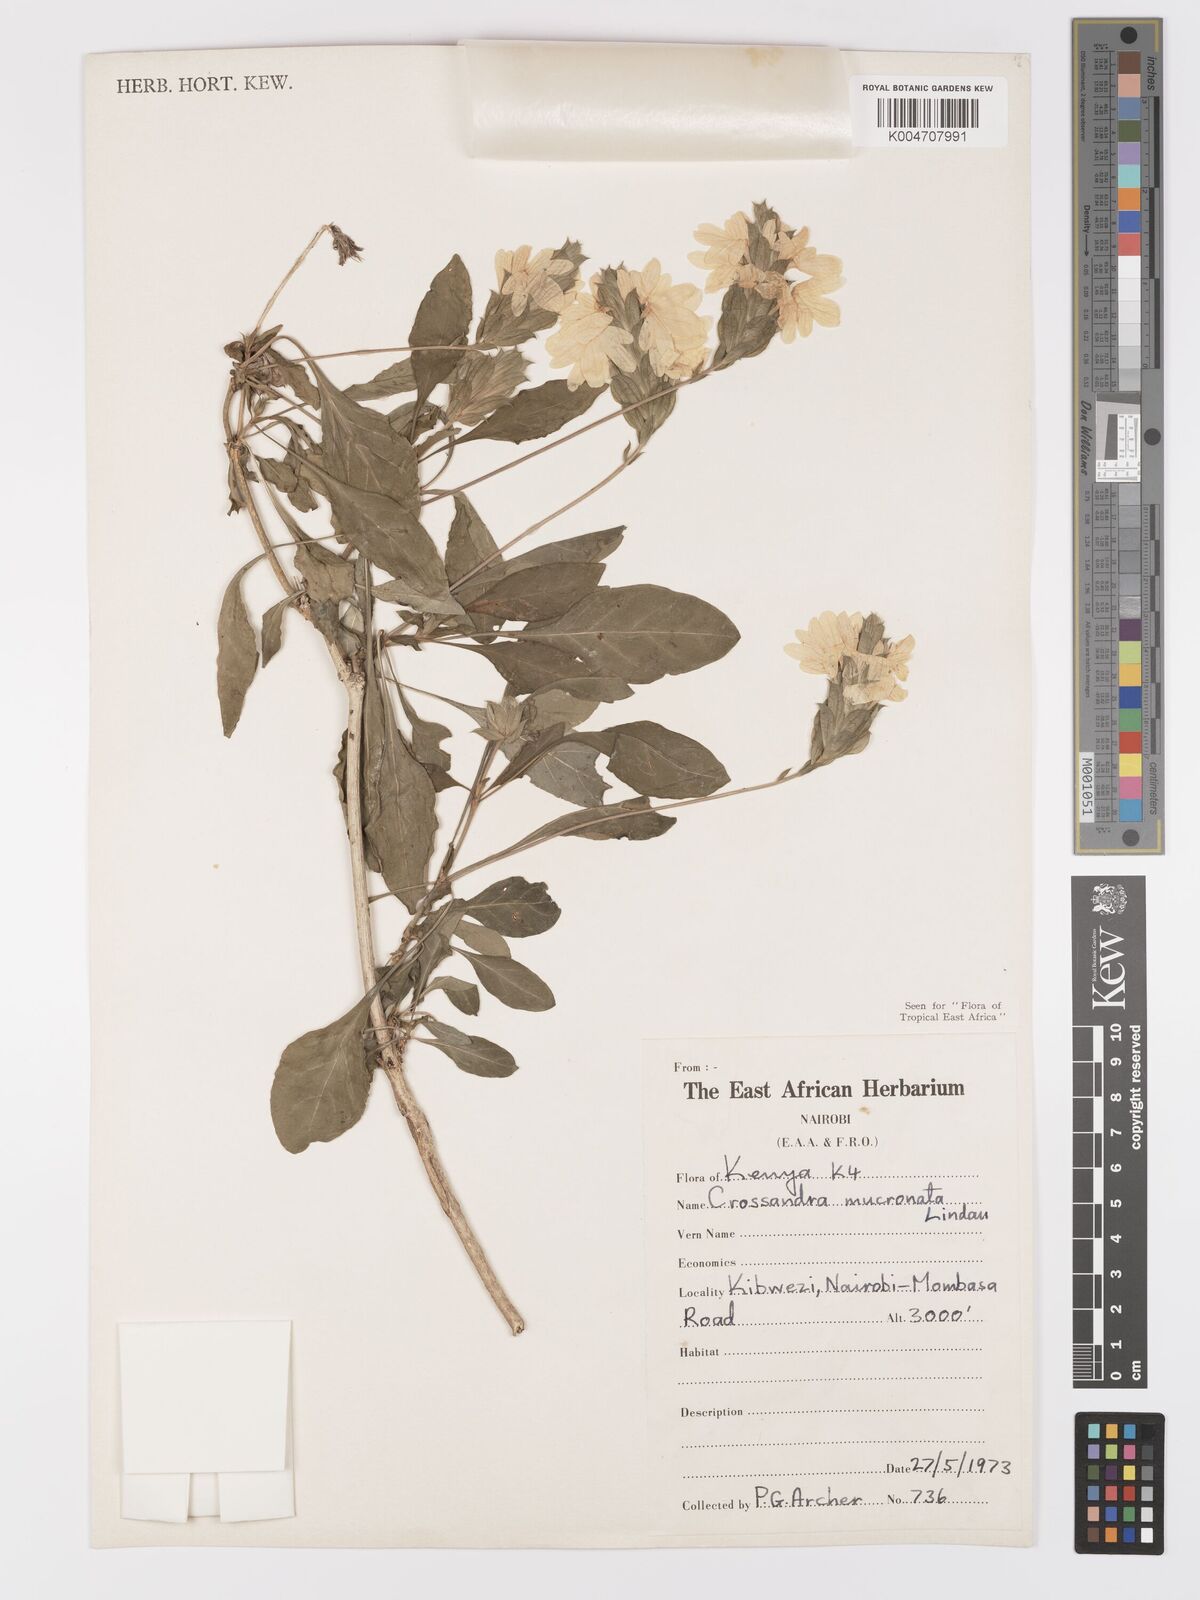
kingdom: Plantae
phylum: Tracheophyta
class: Magnoliopsida
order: Lamiales
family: Acanthaceae
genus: Crossandra
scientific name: Crossandra mucronata
